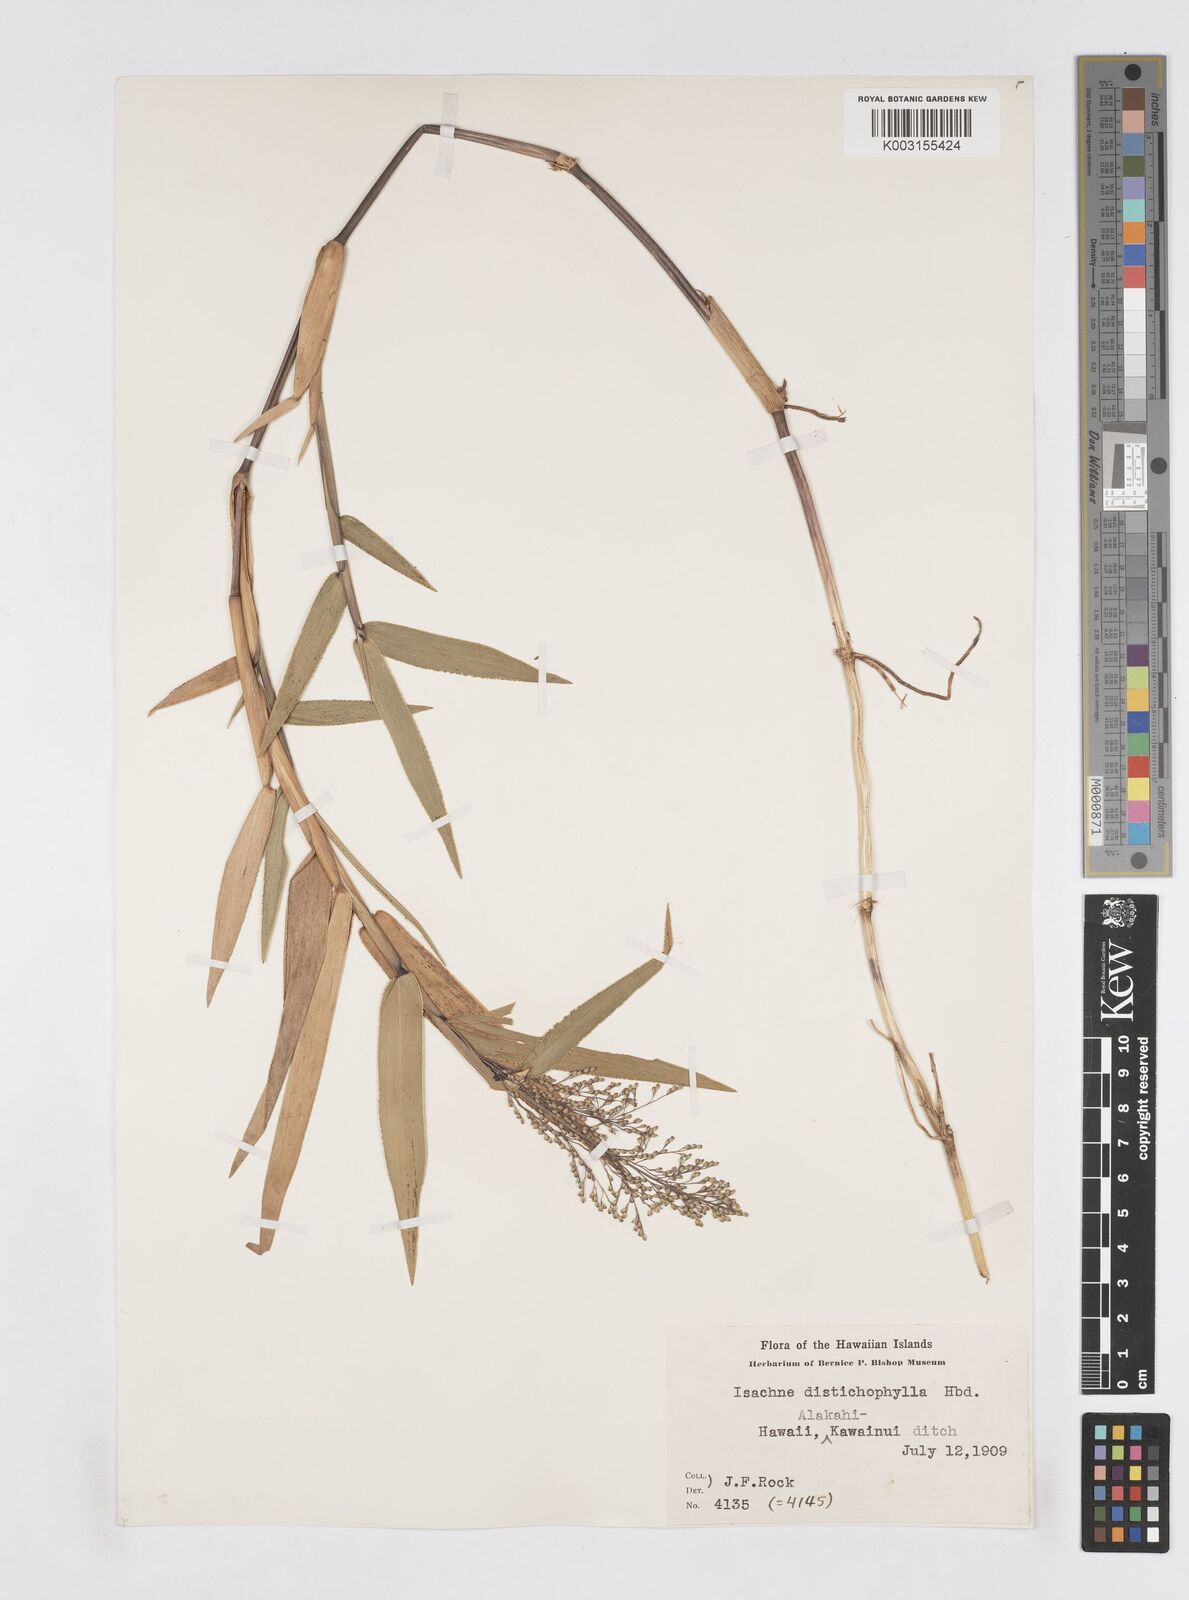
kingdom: Plantae
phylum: Tracheophyta
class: Liliopsida
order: Poales
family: Poaceae
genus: Isachne
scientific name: Isachne distichophylla
